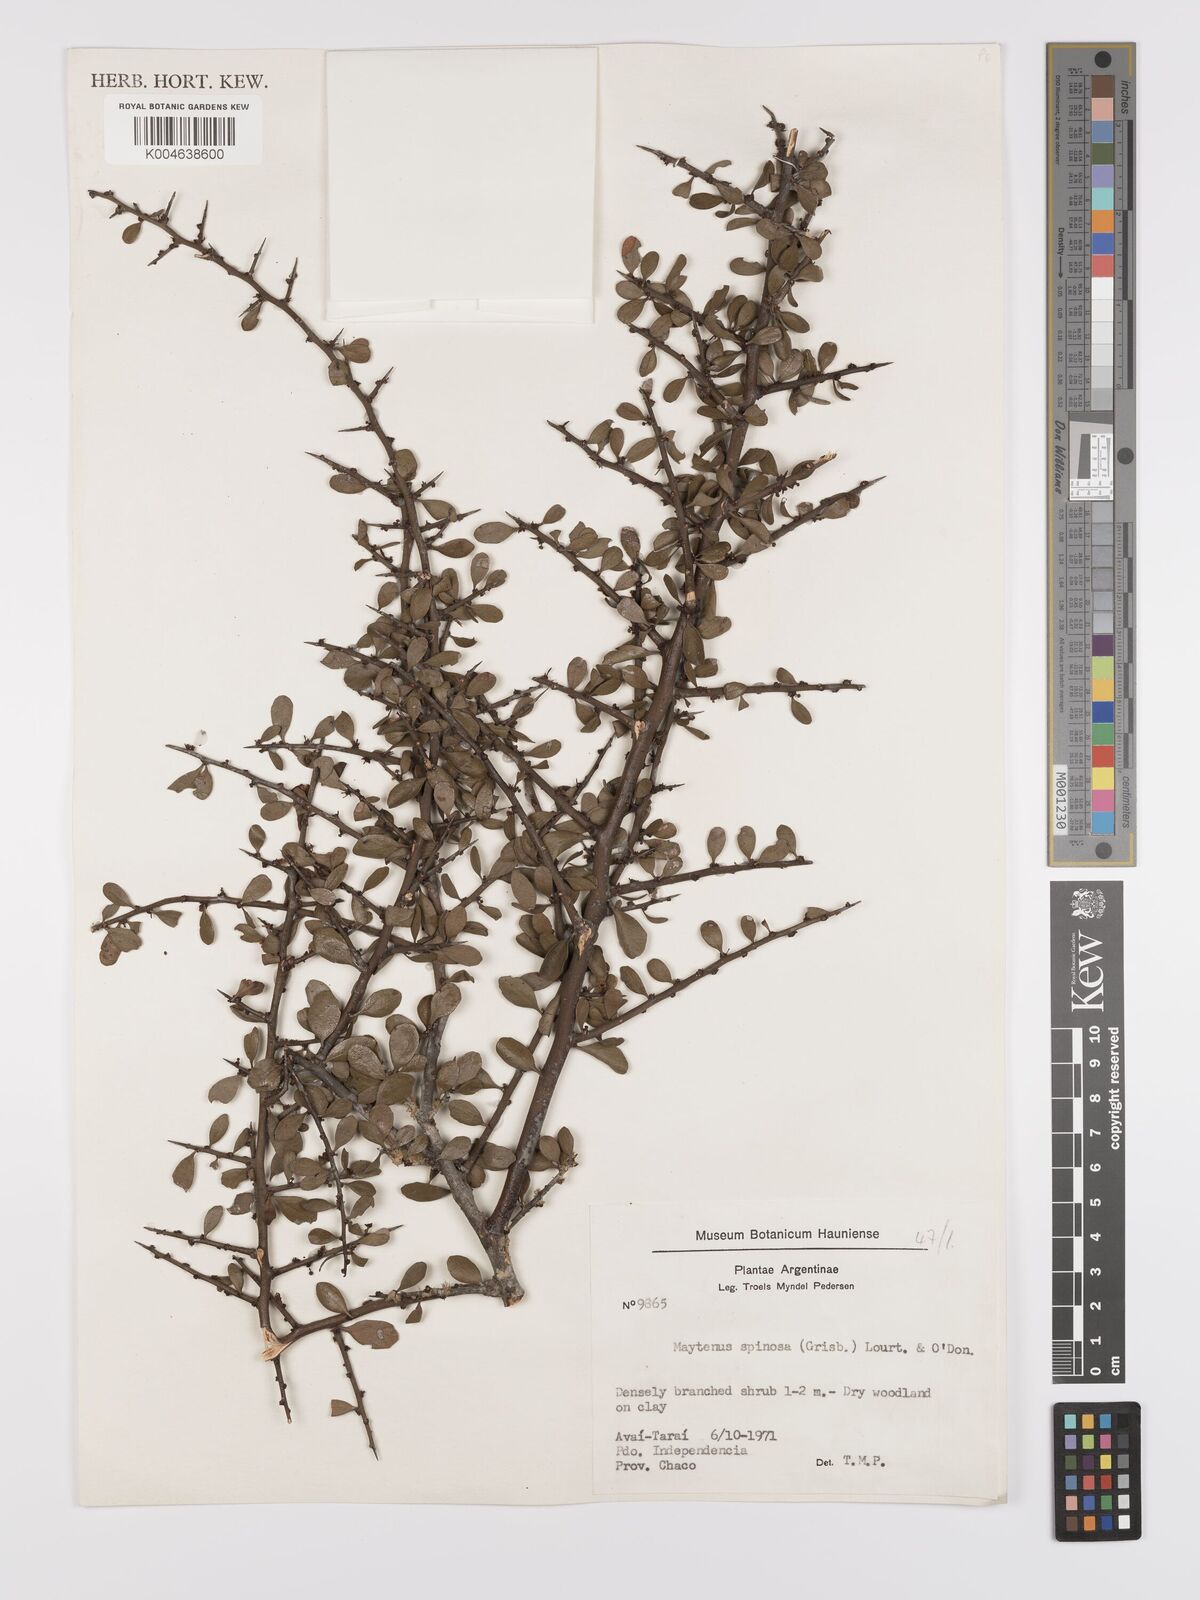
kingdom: Plantae
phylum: Tracheophyta
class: Magnoliopsida
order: Celastrales
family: Celastraceae
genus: Monteverdia
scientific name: Monteverdia spinosa
